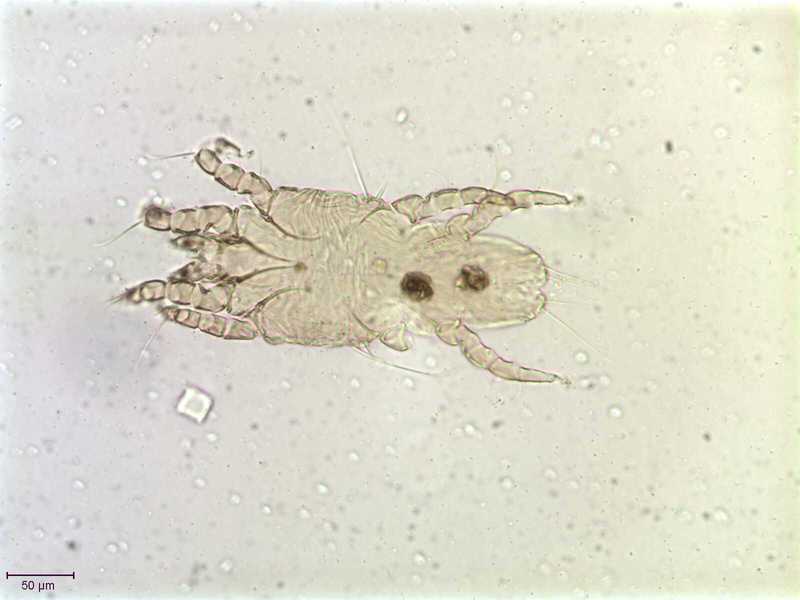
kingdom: Animalia
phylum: Arthropoda
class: Arachnida
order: Sarcoptiformes
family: Proctophyllodidae
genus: Proctophyllodes
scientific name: Proctophyllodes macedo
